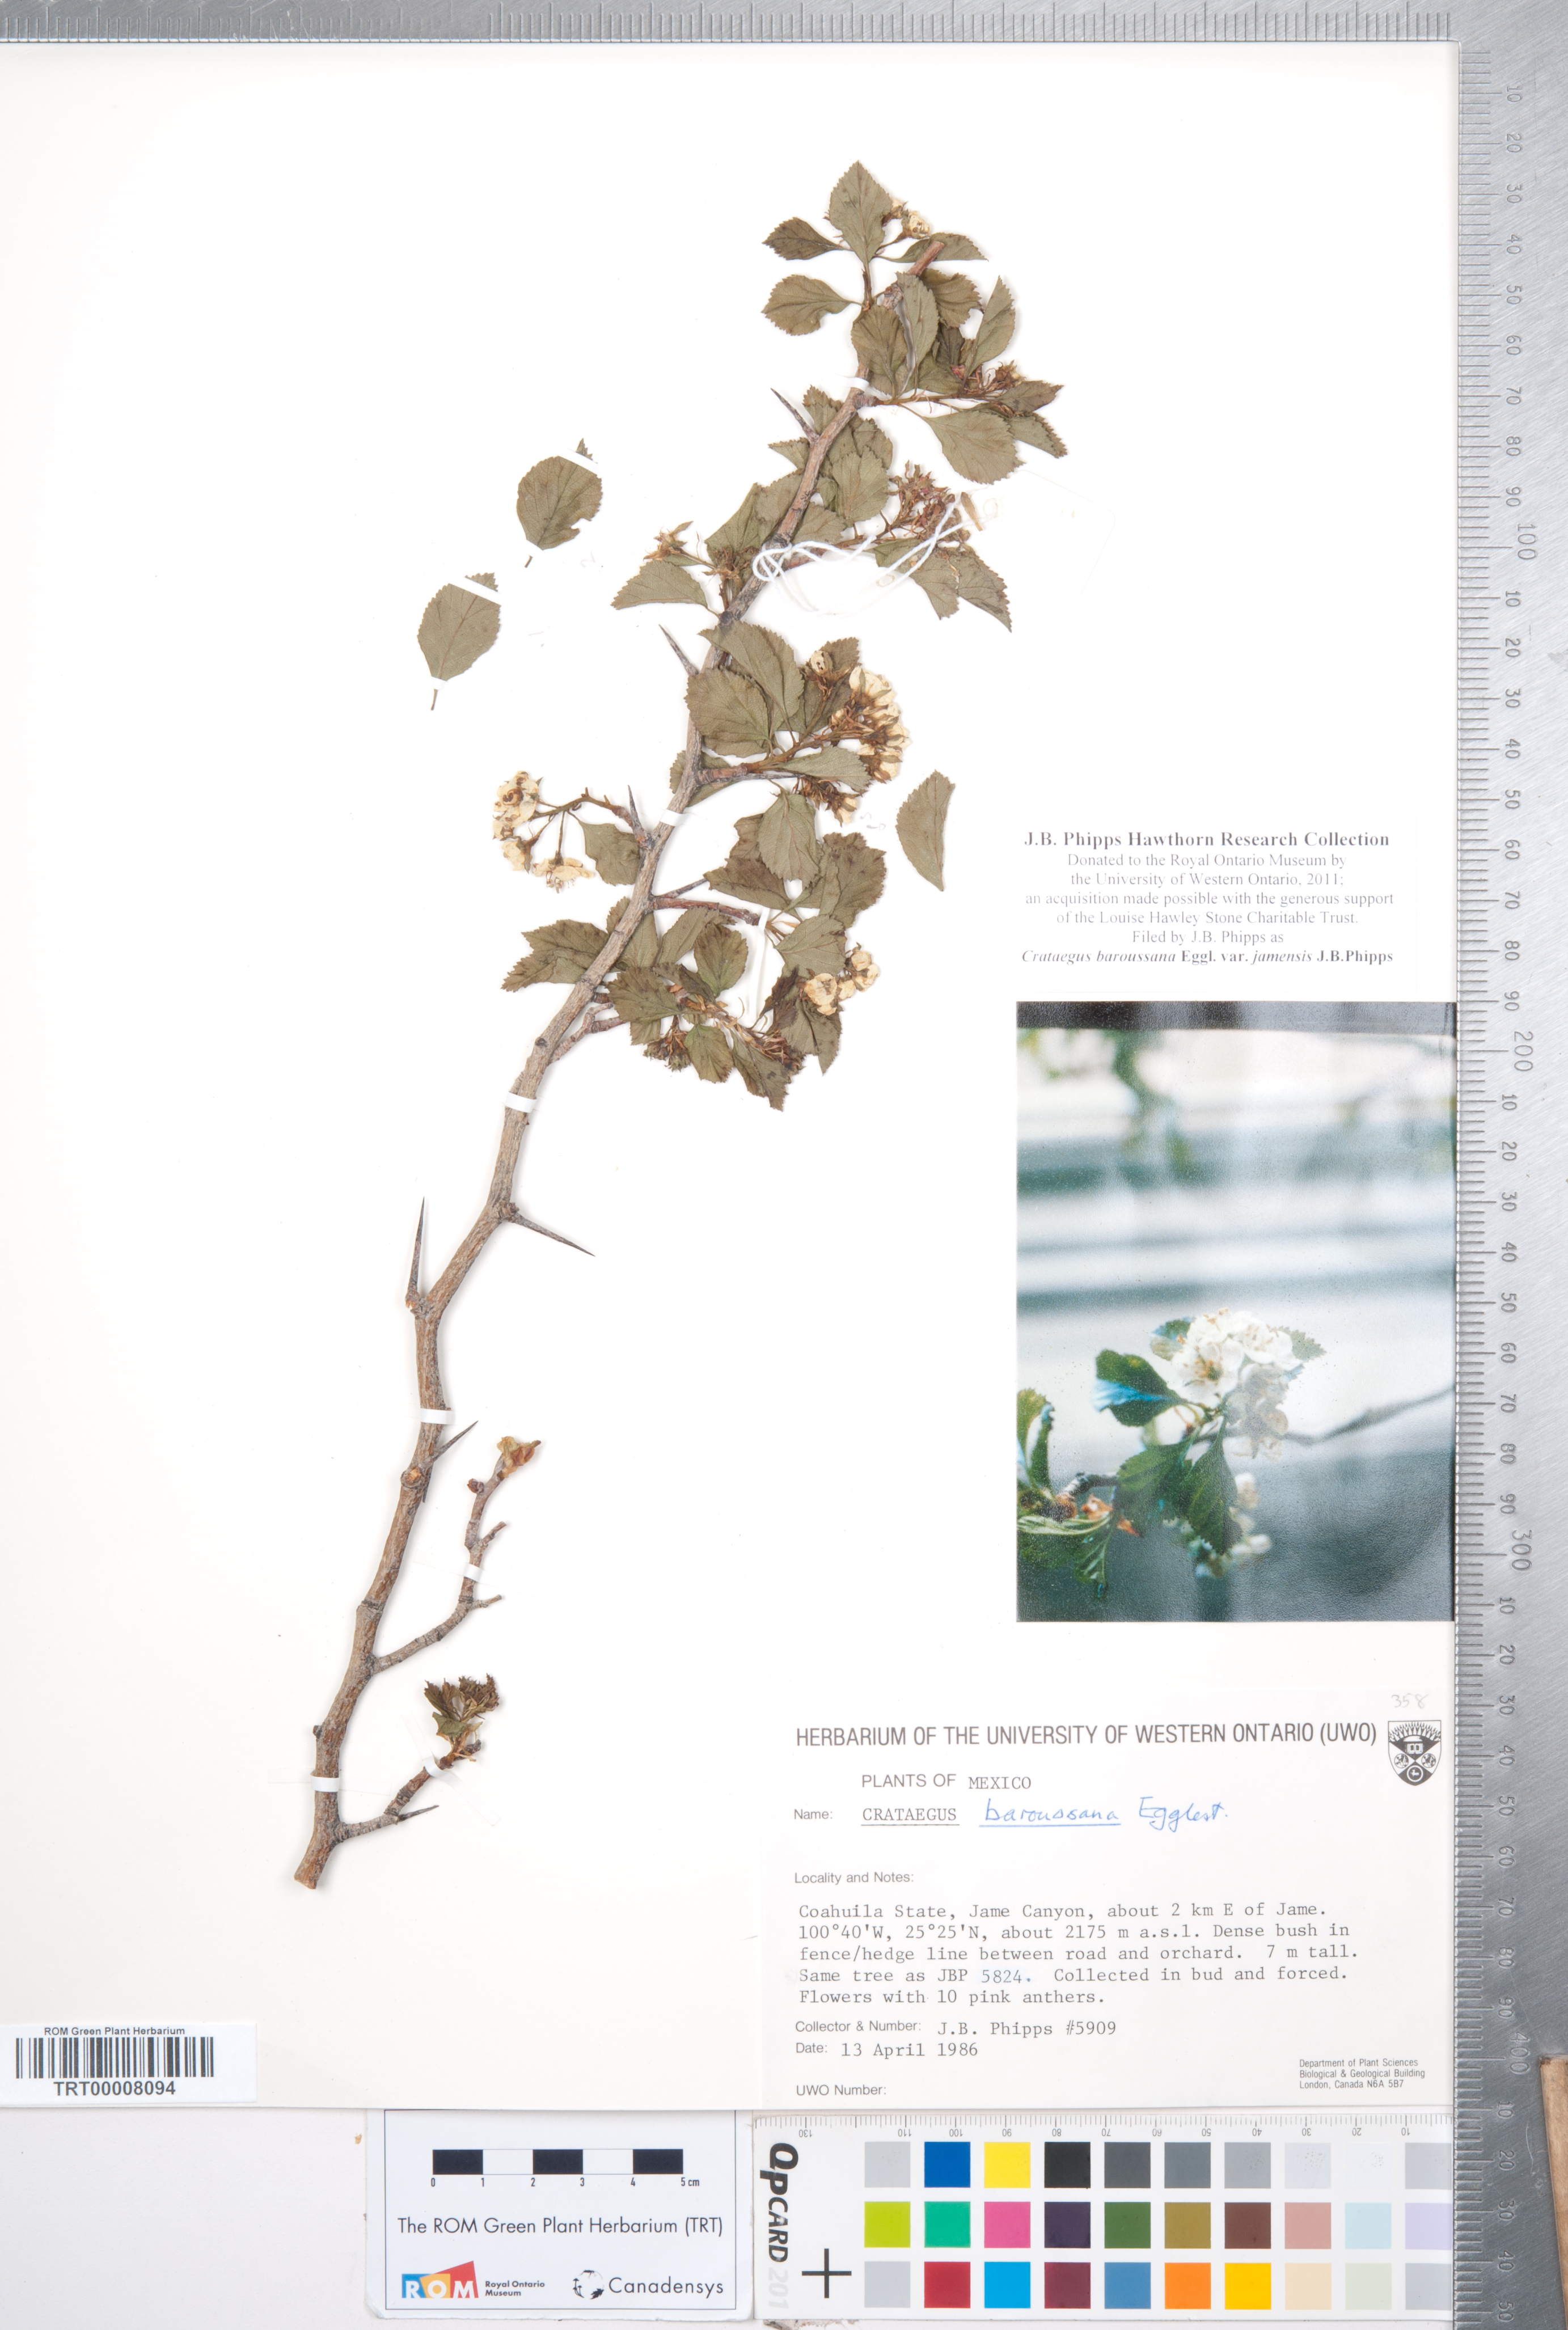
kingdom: Plantae
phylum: Tracheophyta
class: Magnoliopsida
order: Rosales
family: Rosaceae
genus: Crataegus
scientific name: Crataegus baroussana
